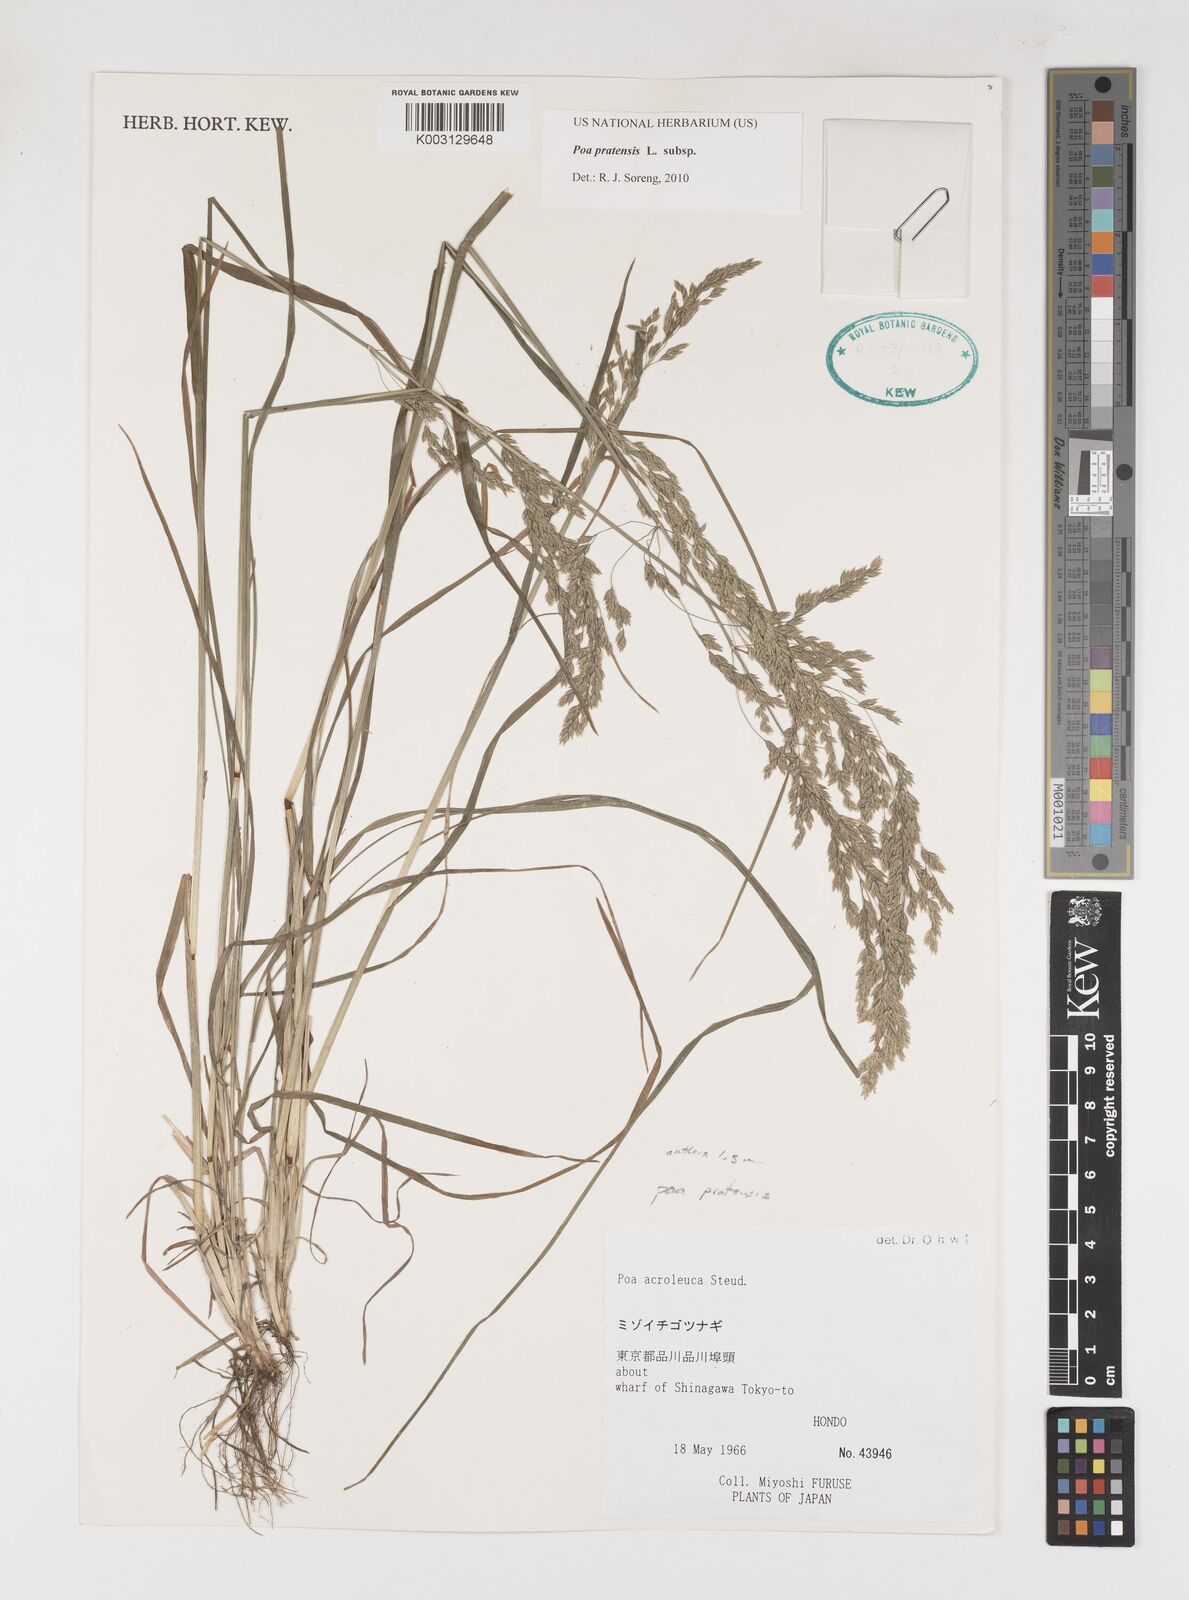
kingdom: Plantae
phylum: Tracheophyta
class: Liliopsida
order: Poales
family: Poaceae
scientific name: Poaceae
